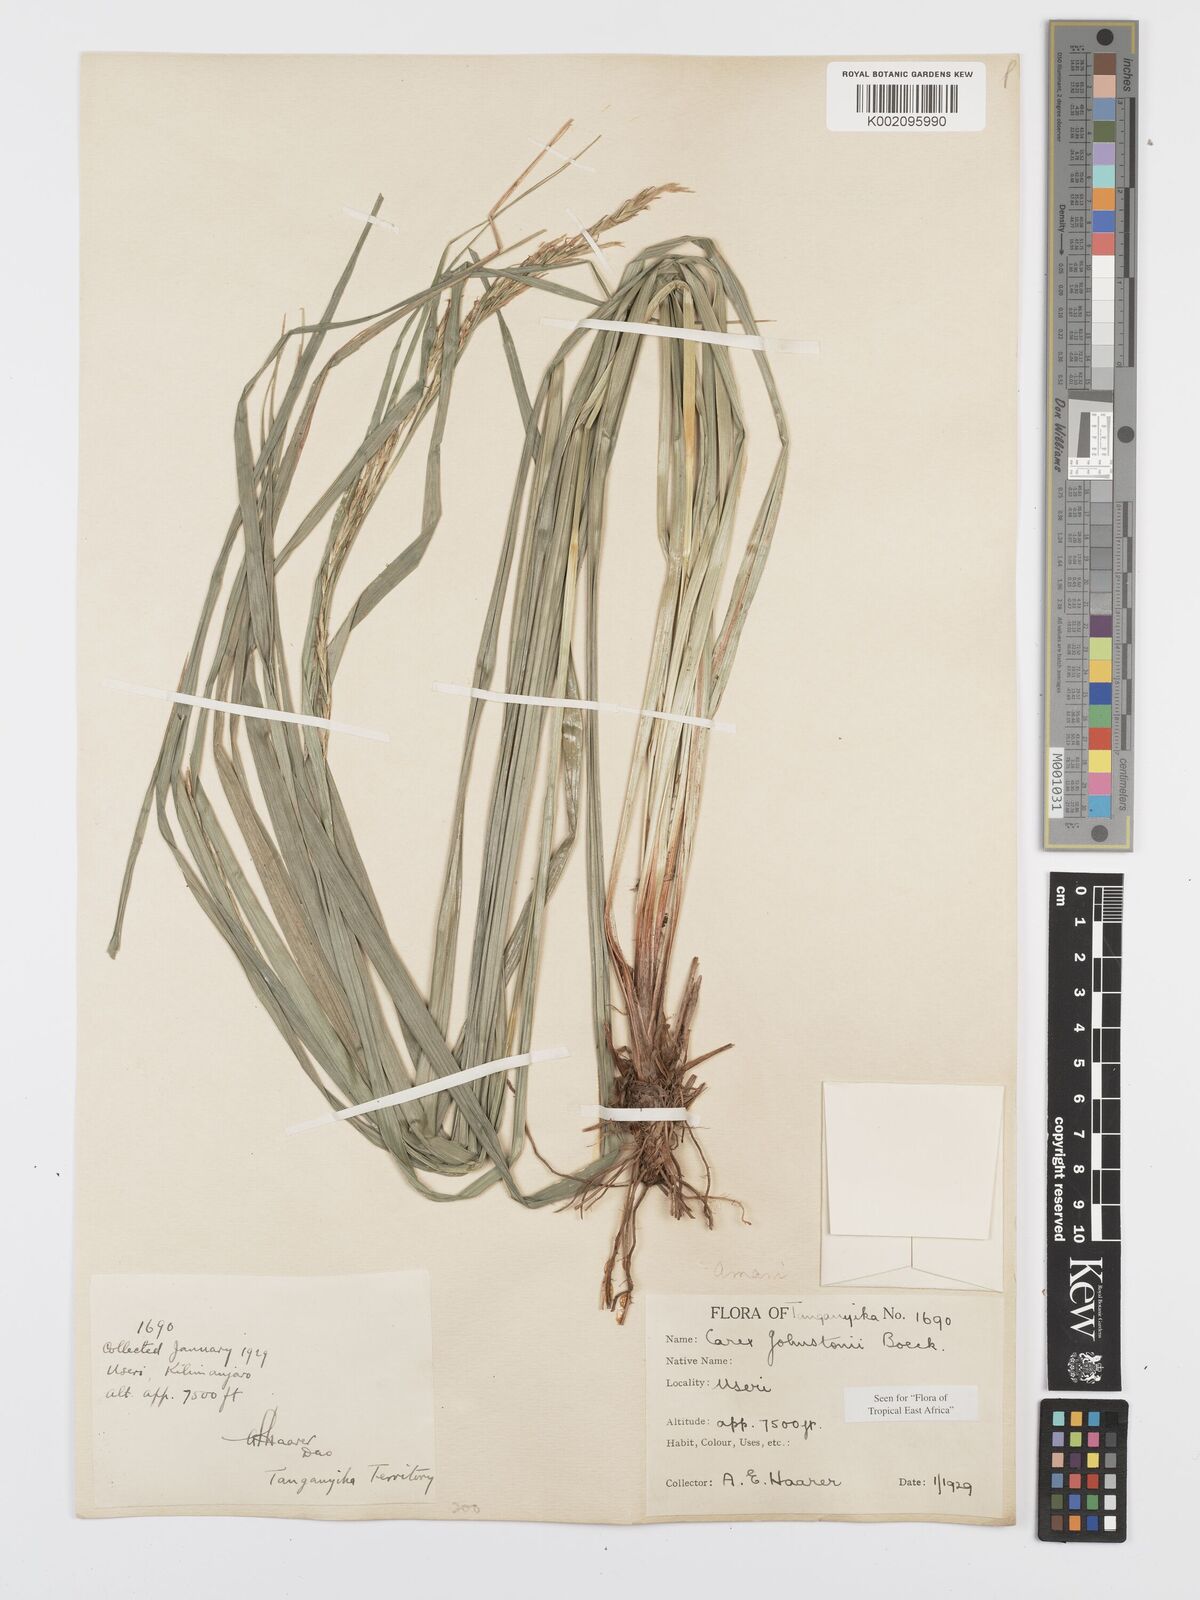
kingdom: Plantae
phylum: Tracheophyta
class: Liliopsida
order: Poales
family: Cyperaceae
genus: Carex
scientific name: Carex johnstonii
